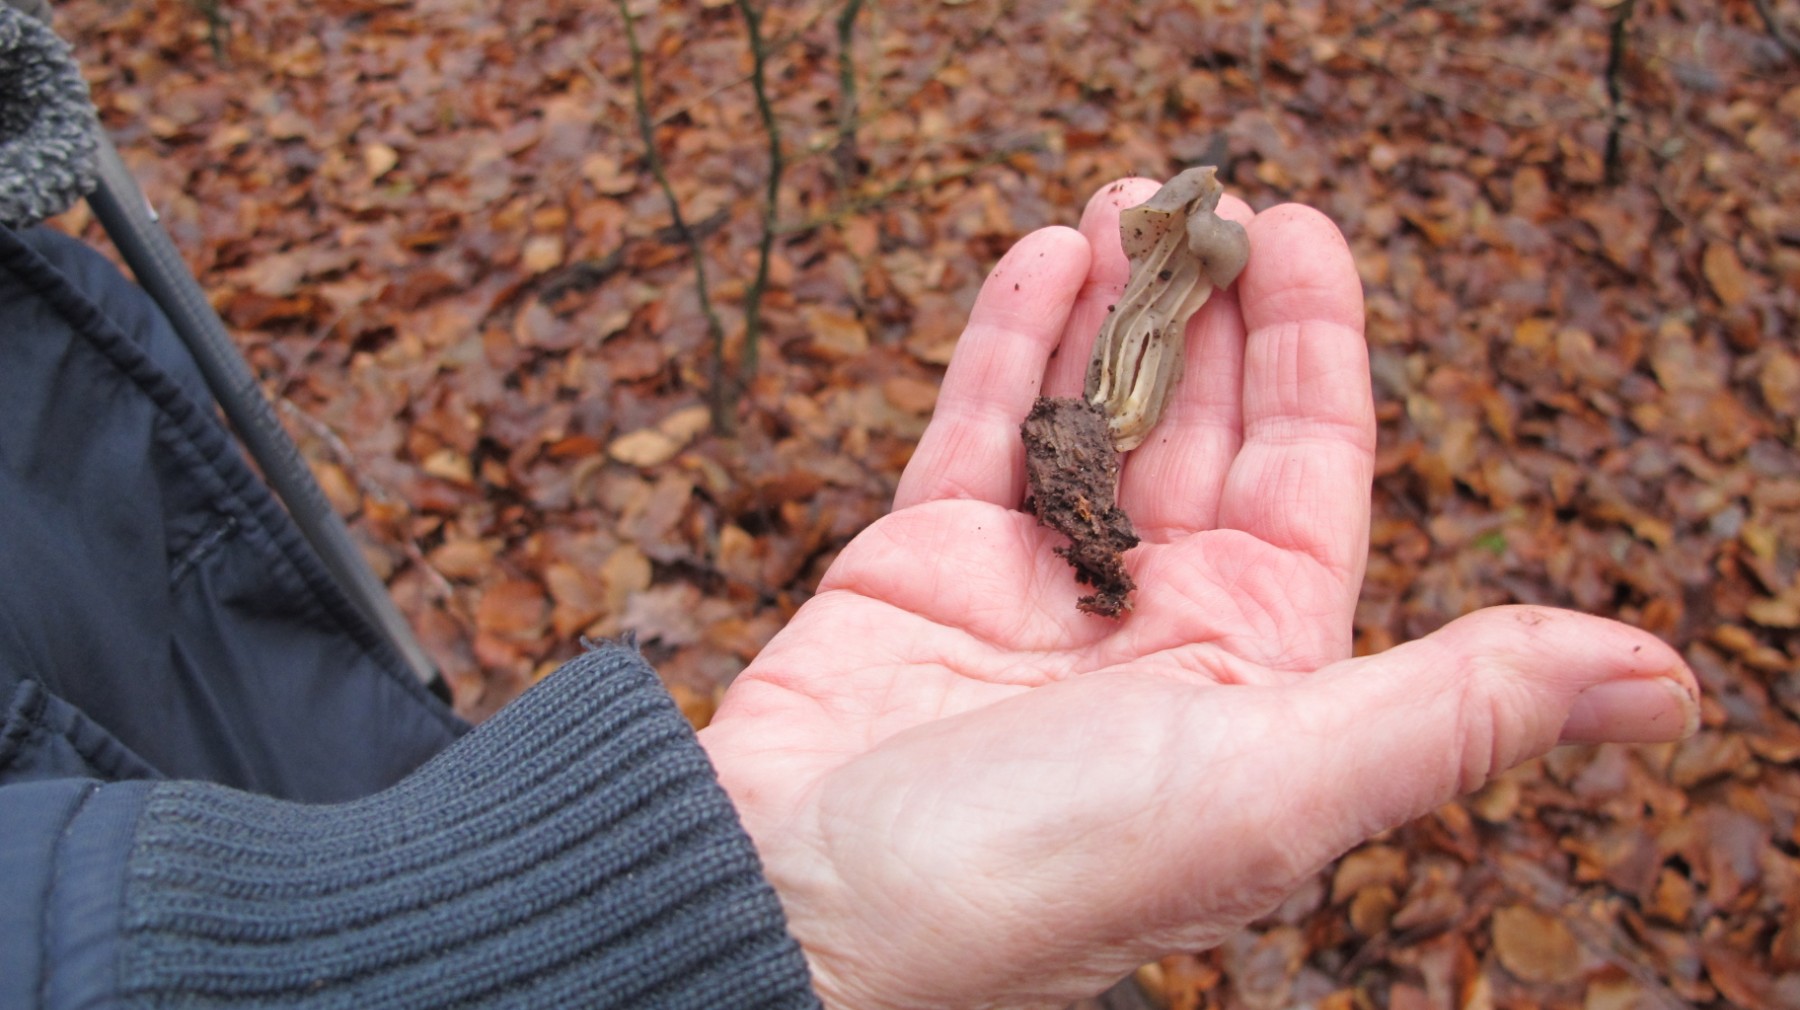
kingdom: Fungi
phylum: Ascomycota
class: Pezizomycetes
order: Pezizales
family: Helvellaceae
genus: Helvella
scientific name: Helvella lacunosa
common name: grubet foldhat
